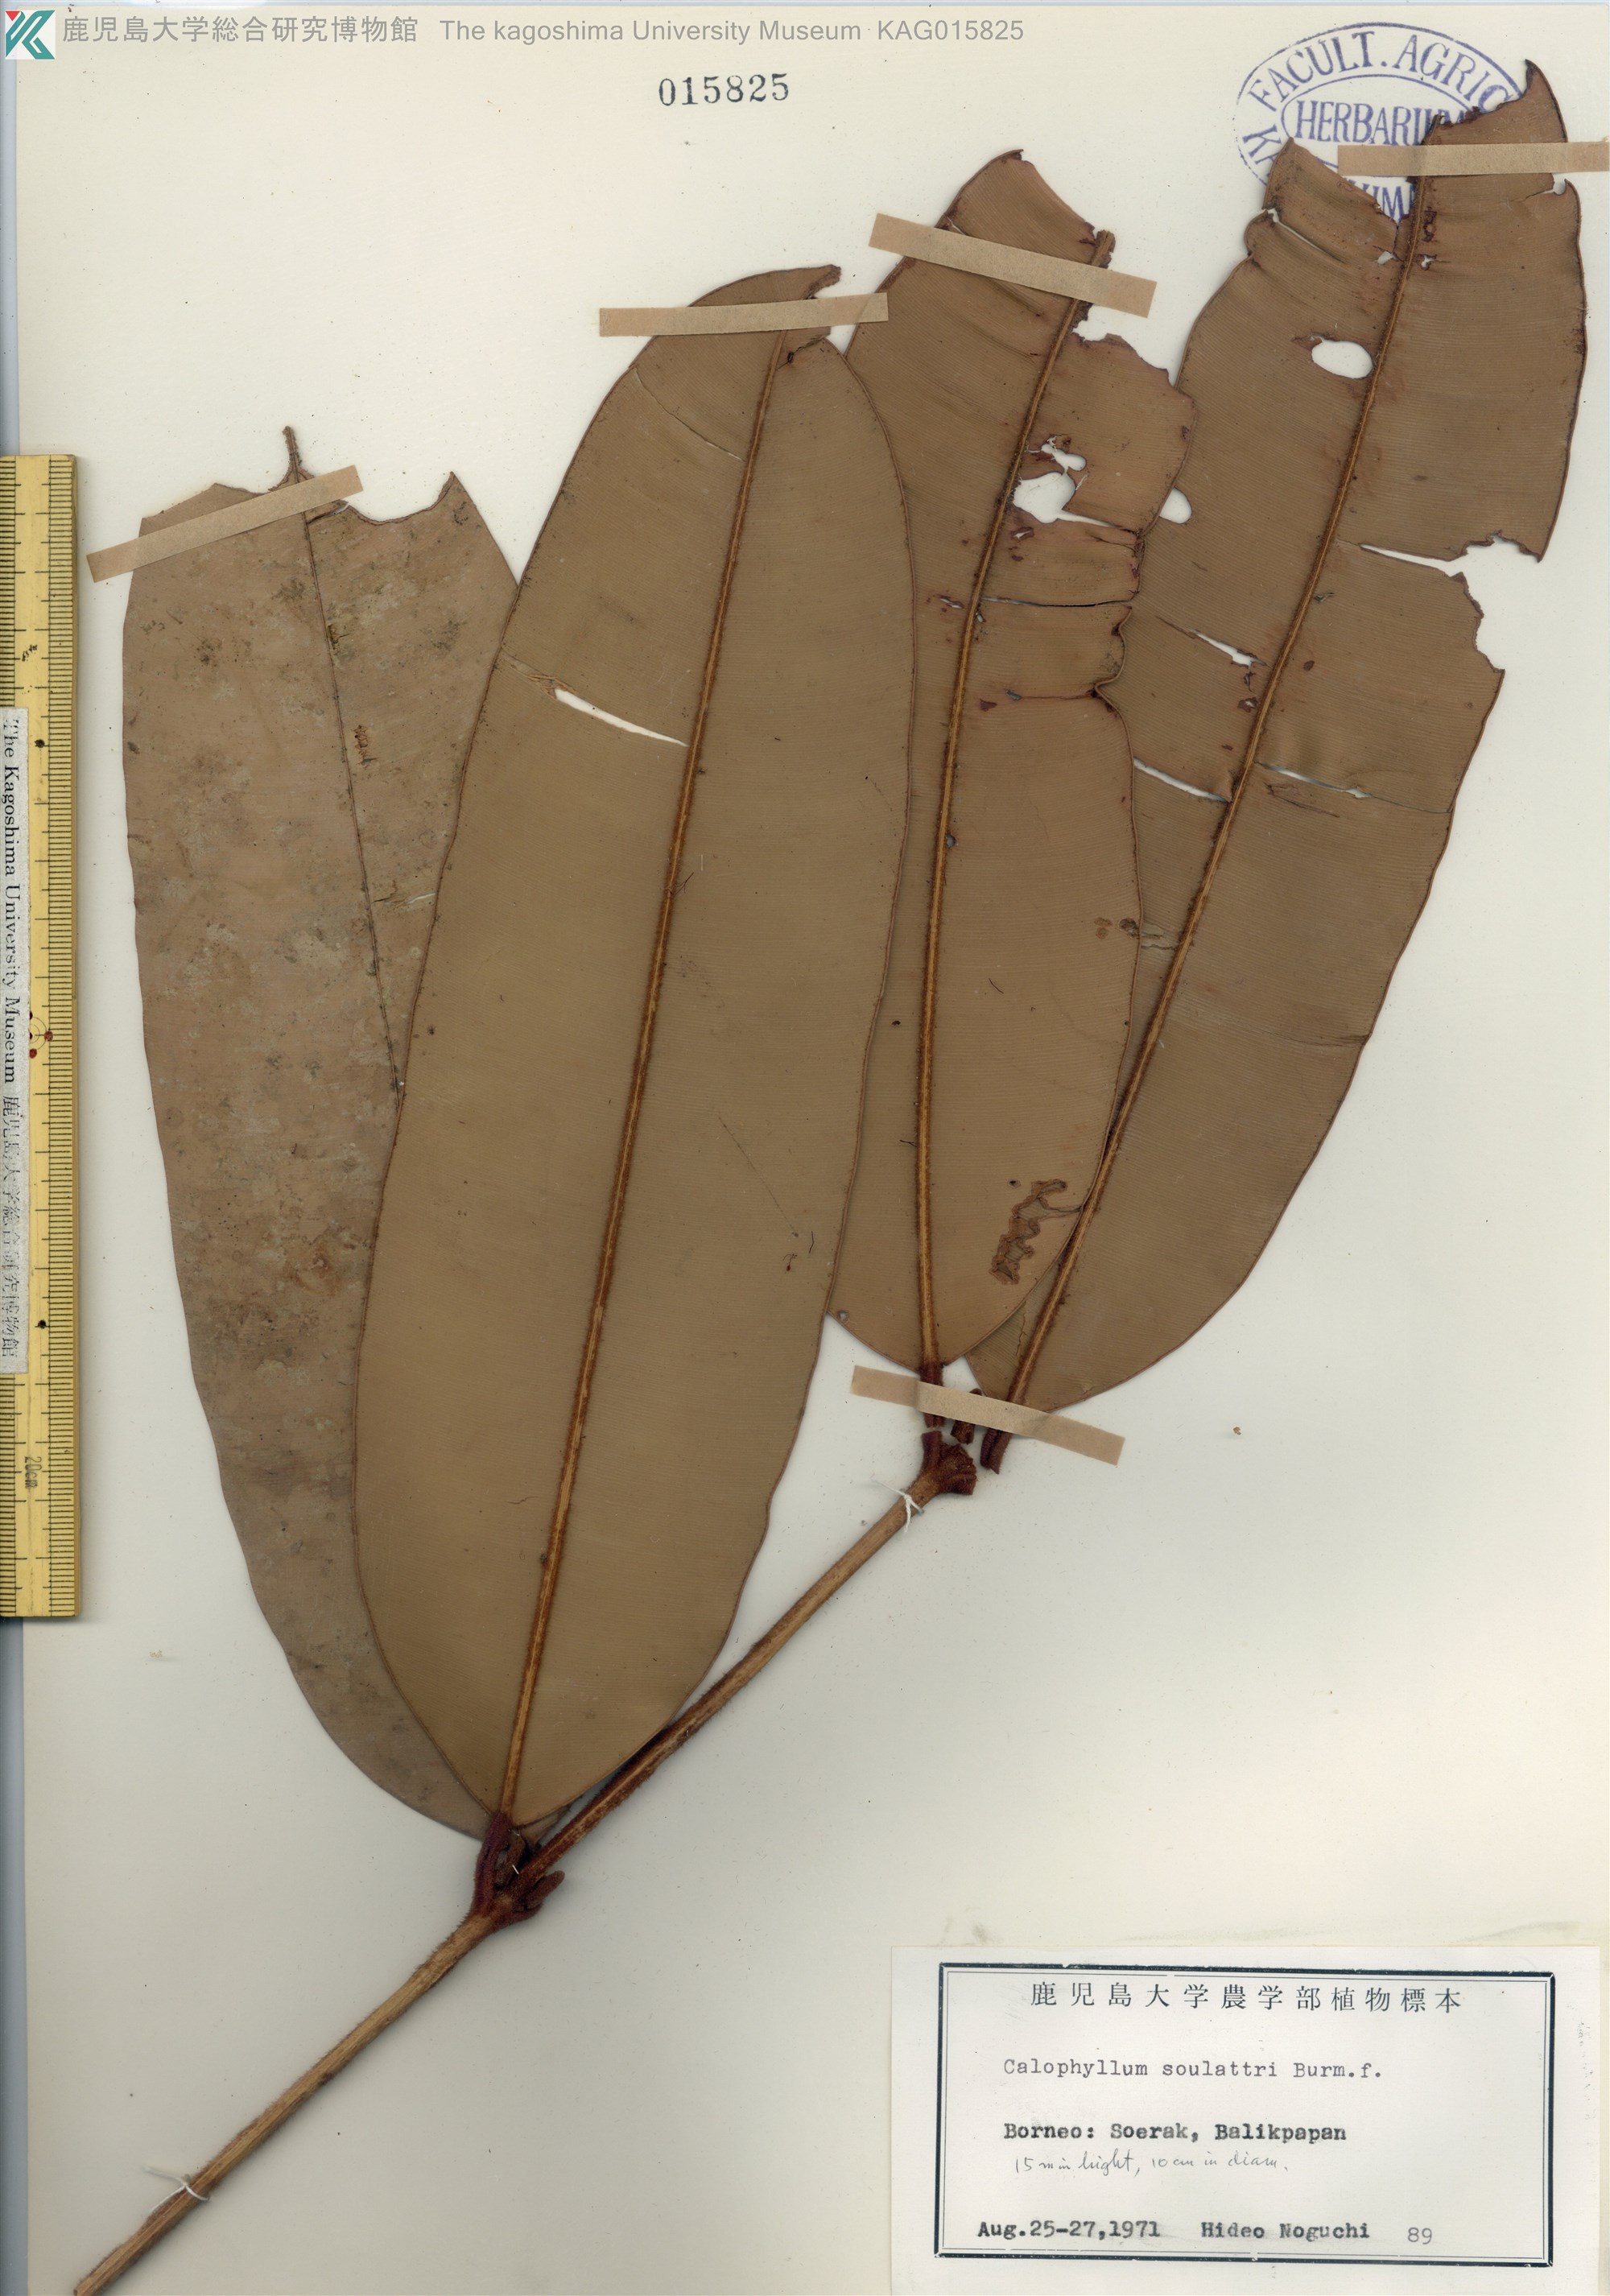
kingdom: Plantae
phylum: Tracheophyta
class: Magnoliopsida
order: Malpighiales
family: Calophyllaceae
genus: Calophyllum
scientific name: Calophyllum soulattri
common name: Bitangoor boonot
